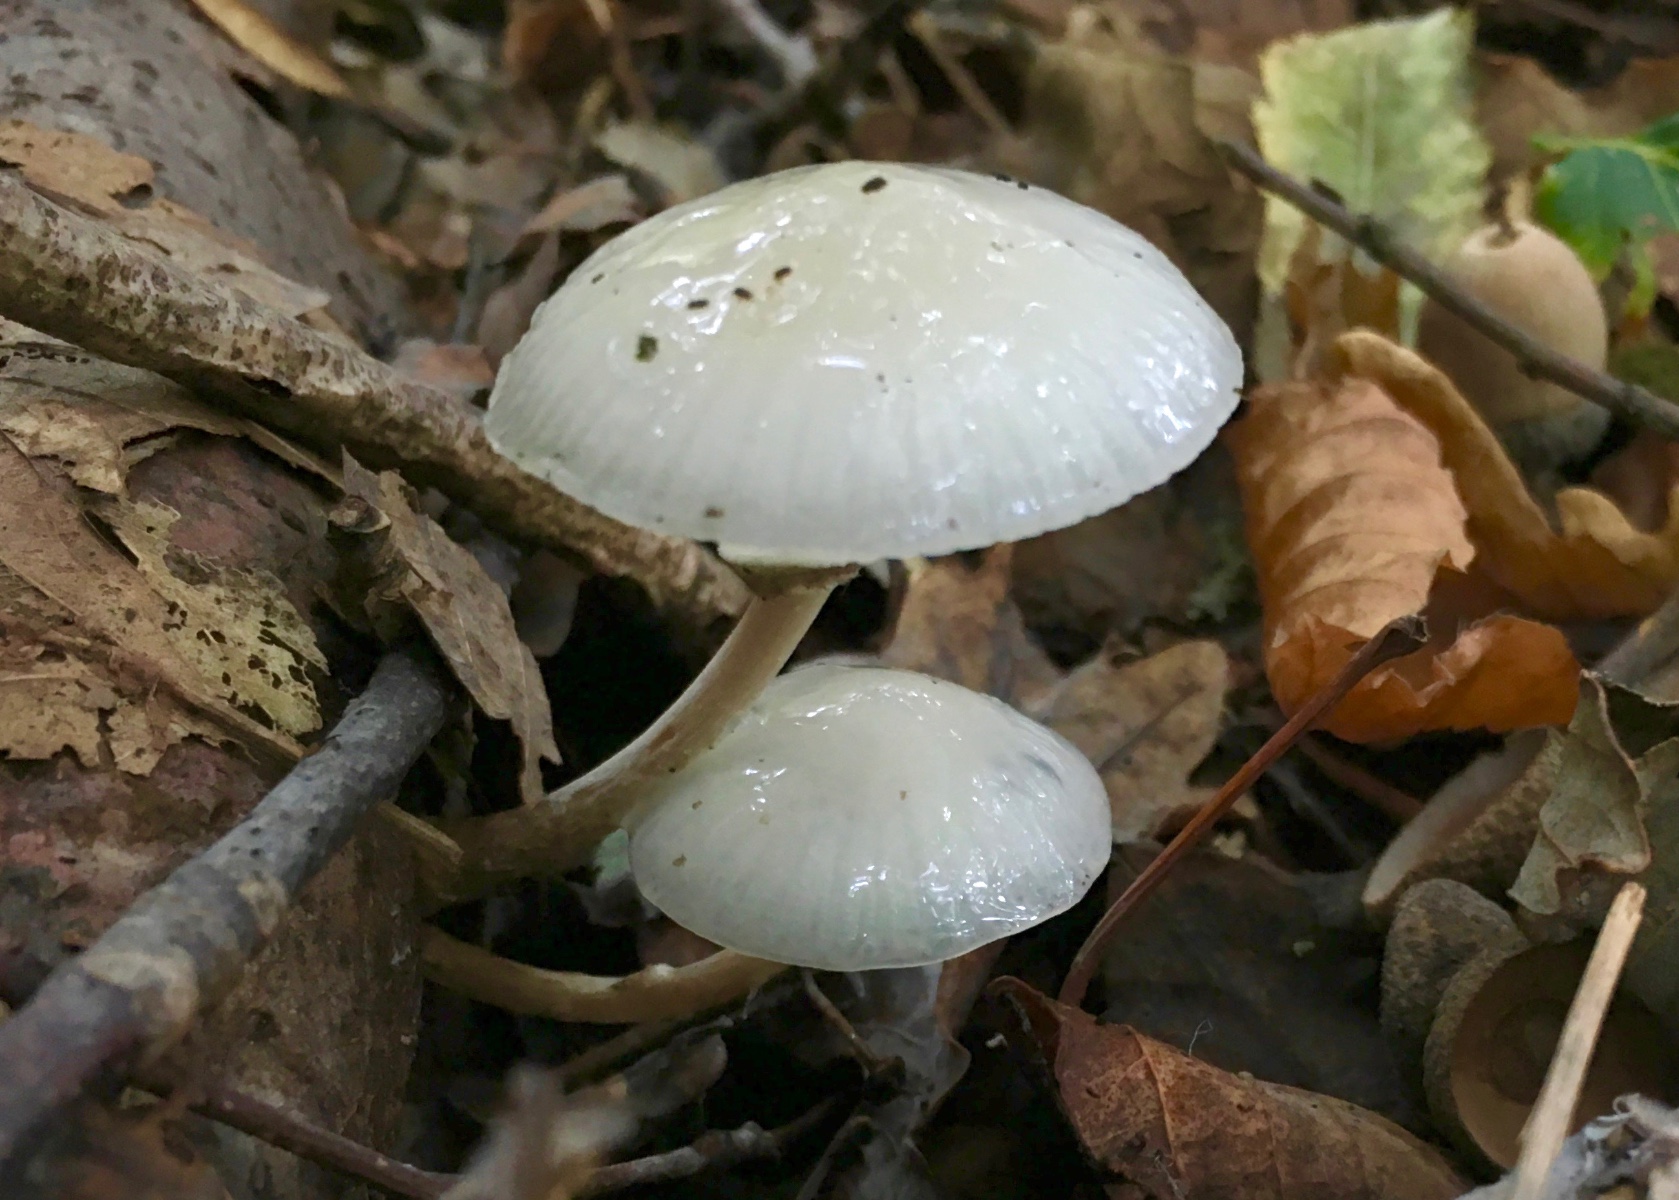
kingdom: Fungi
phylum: Basidiomycota
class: Agaricomycetes
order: Agaricales
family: Physalacriaceae
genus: Mucidula
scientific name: Mucidula mucida
